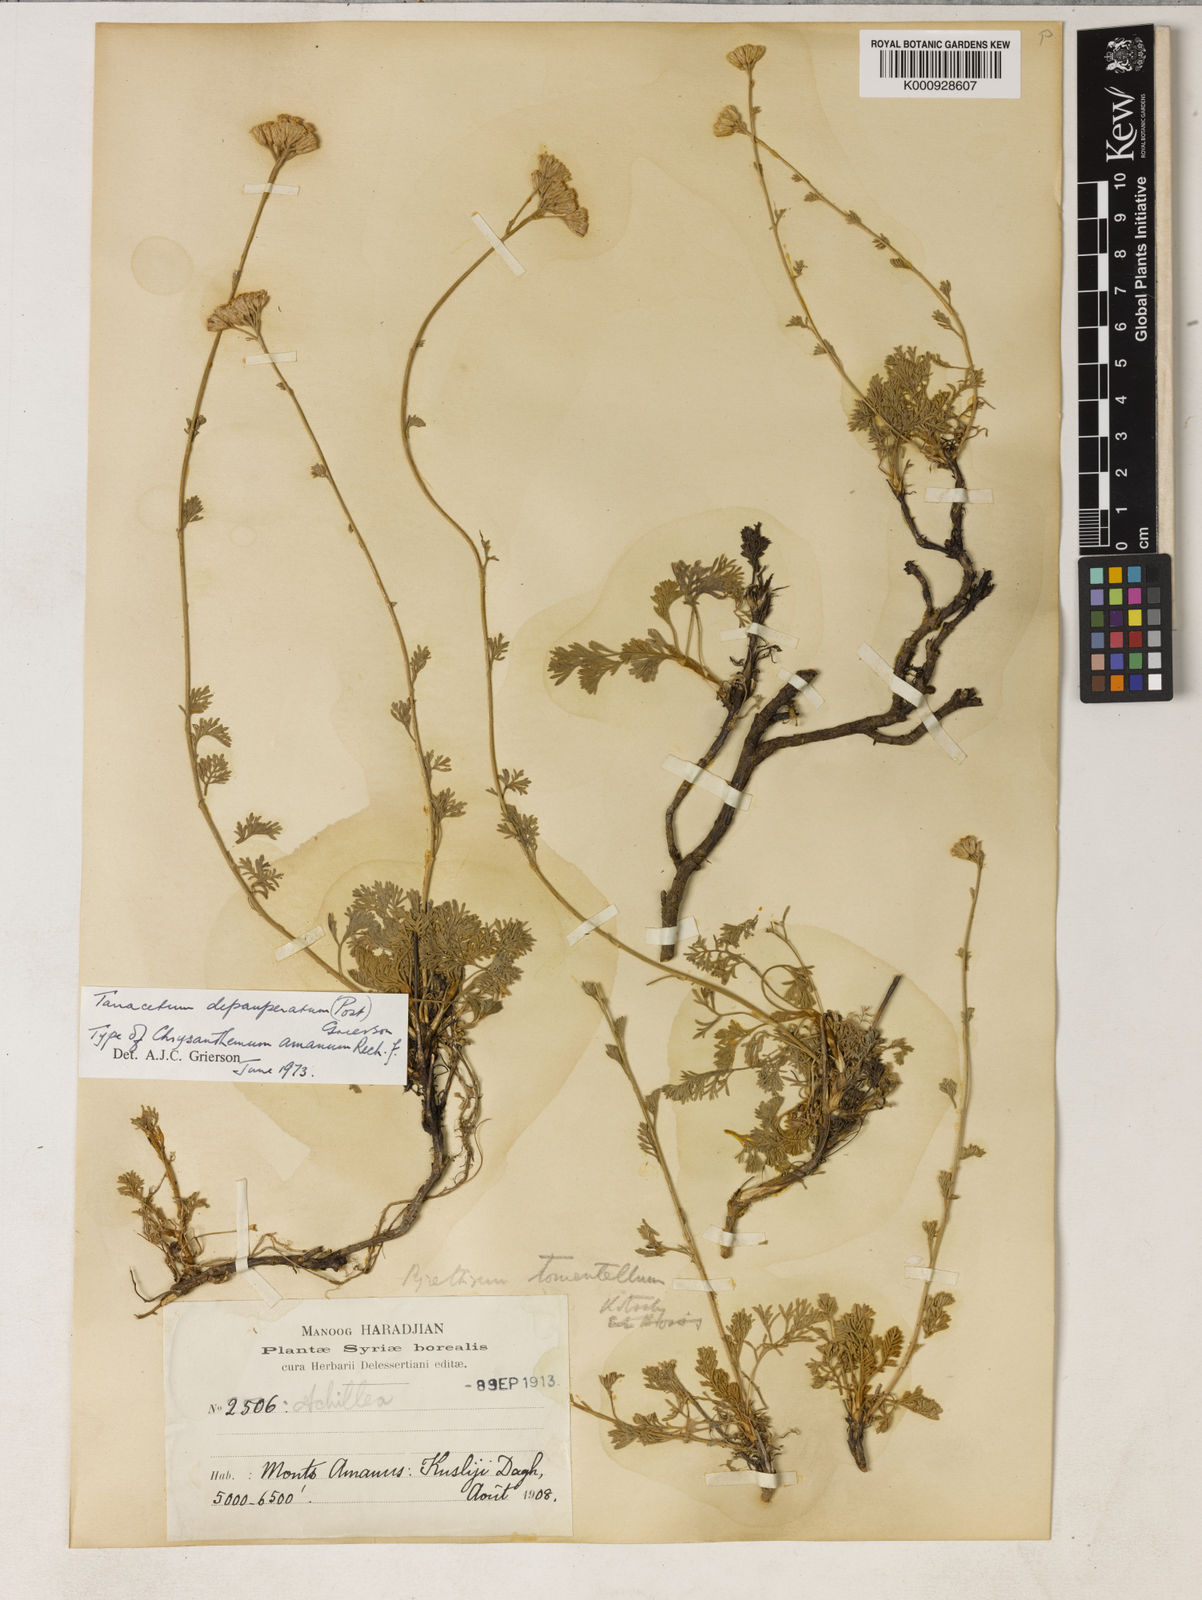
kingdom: Plantae
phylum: Tracheophyta
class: Magnoliopsida
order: Asterales
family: Asteraceae
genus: Tanacetum
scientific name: Tanacetum depauperatum
